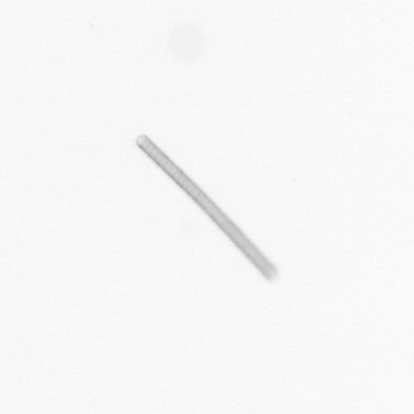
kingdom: Chromista
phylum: Ochrophyta
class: Bacillariophyceae
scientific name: Bacillariophyceae
